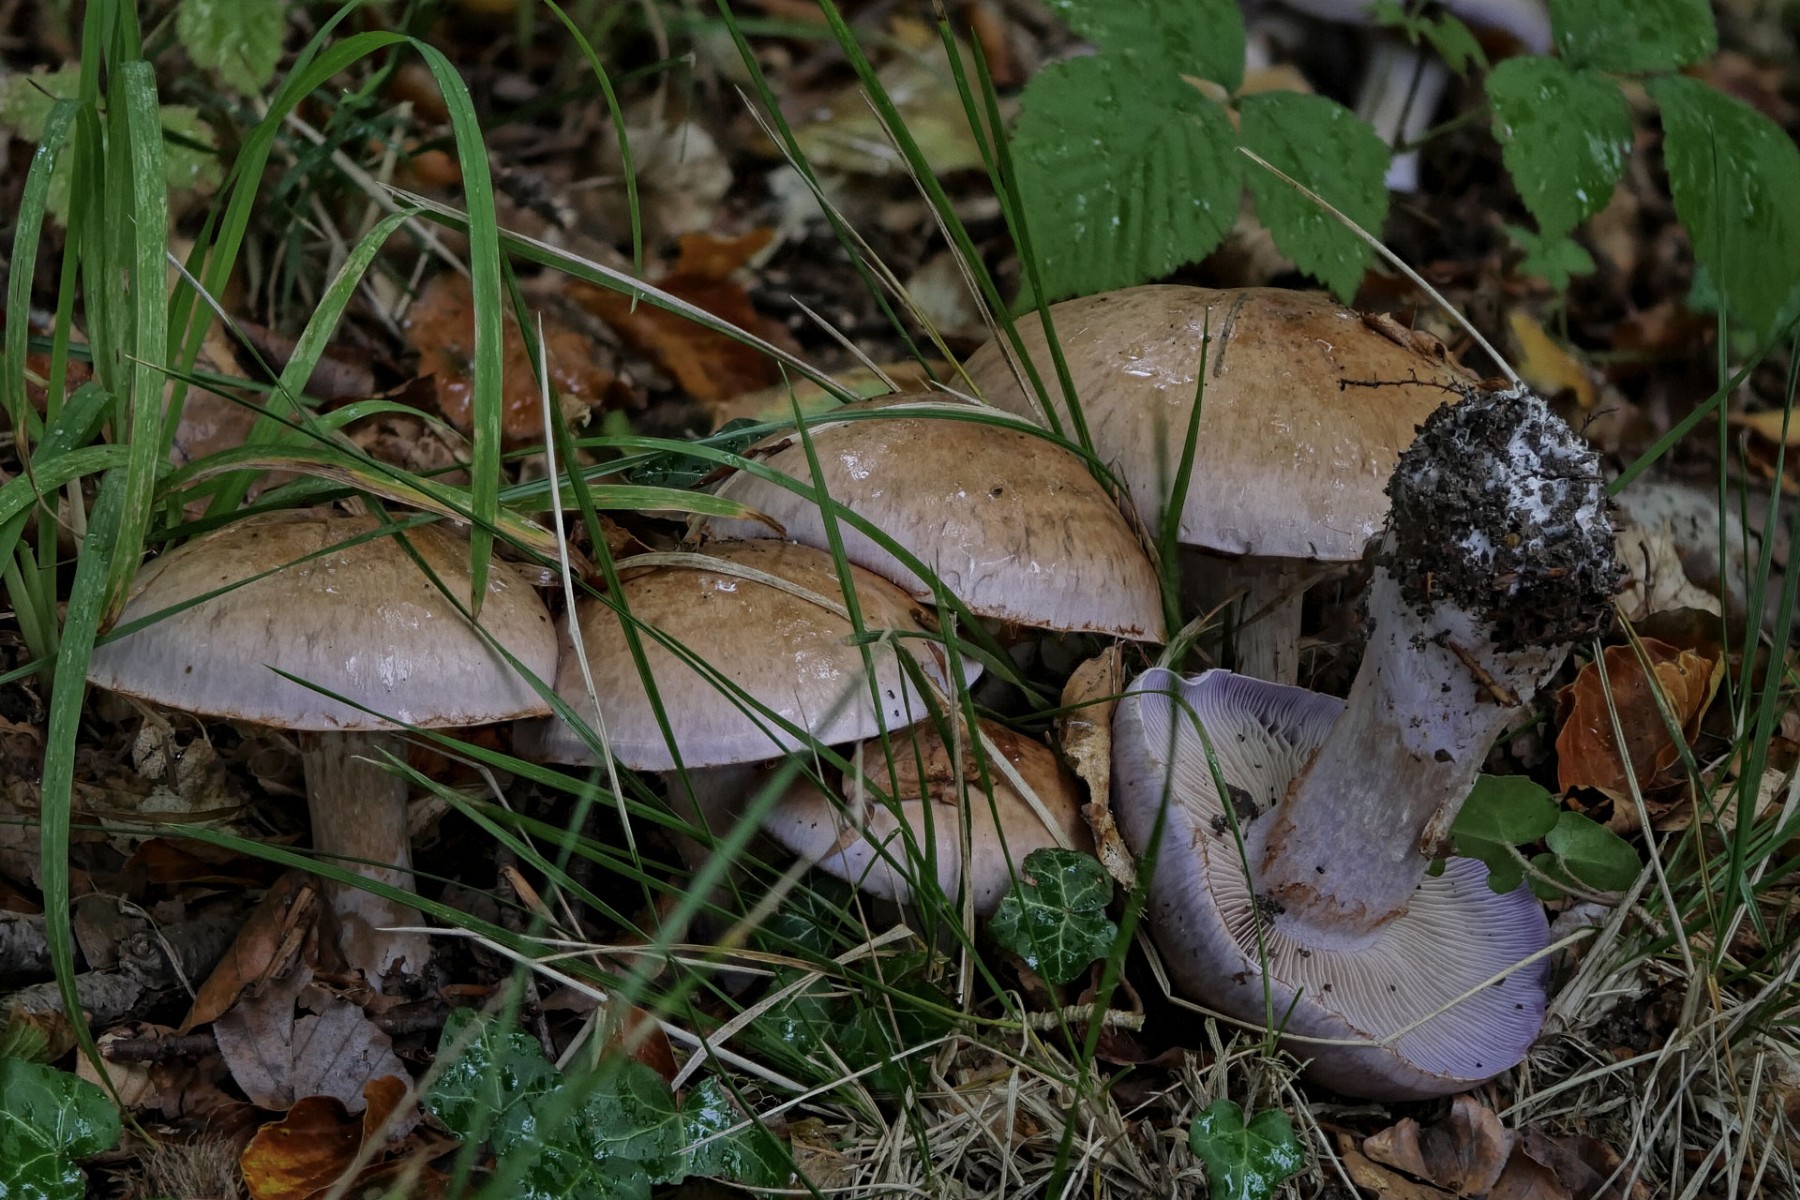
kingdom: Fungi
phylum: Basidiomycota
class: Agaricomycetes
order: Agaricales
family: Cortinariaceae
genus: Cortinarius
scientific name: Cortinarius largus
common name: violetrandet slørhat
